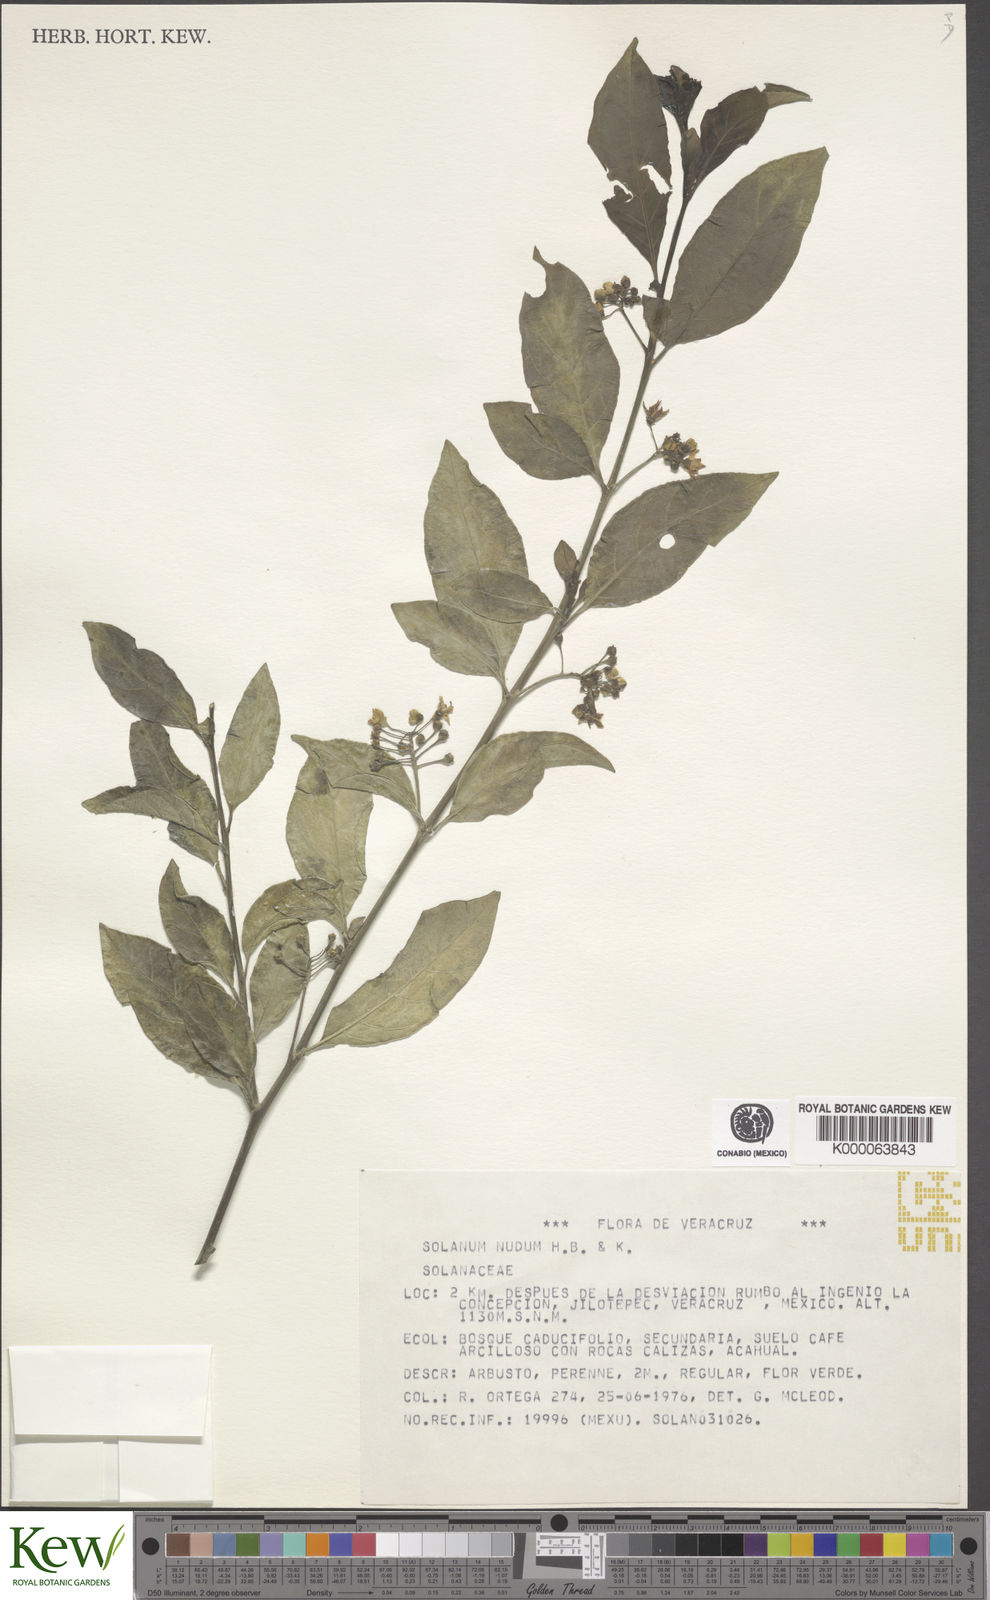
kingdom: Plantae
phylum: Tracheophyta
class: Magnoliopsida
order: Solanales
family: Solanaceae
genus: Solanum
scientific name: Solanum nudum
